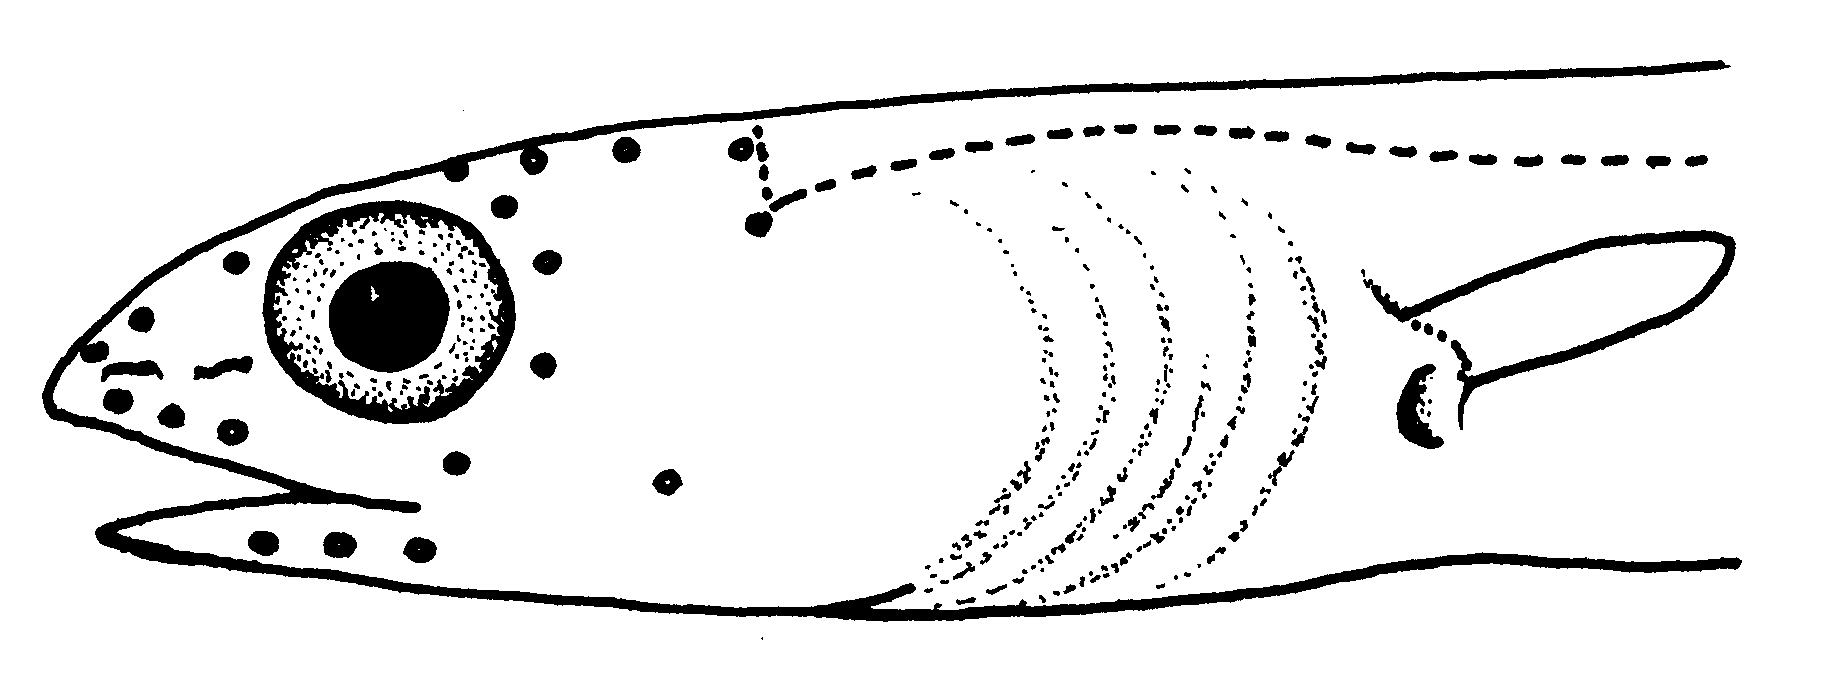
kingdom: Animalia
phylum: Chordata
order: Anguilliformes
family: Ophichthidae
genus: Benthenchelys
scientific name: Benthenchelys
